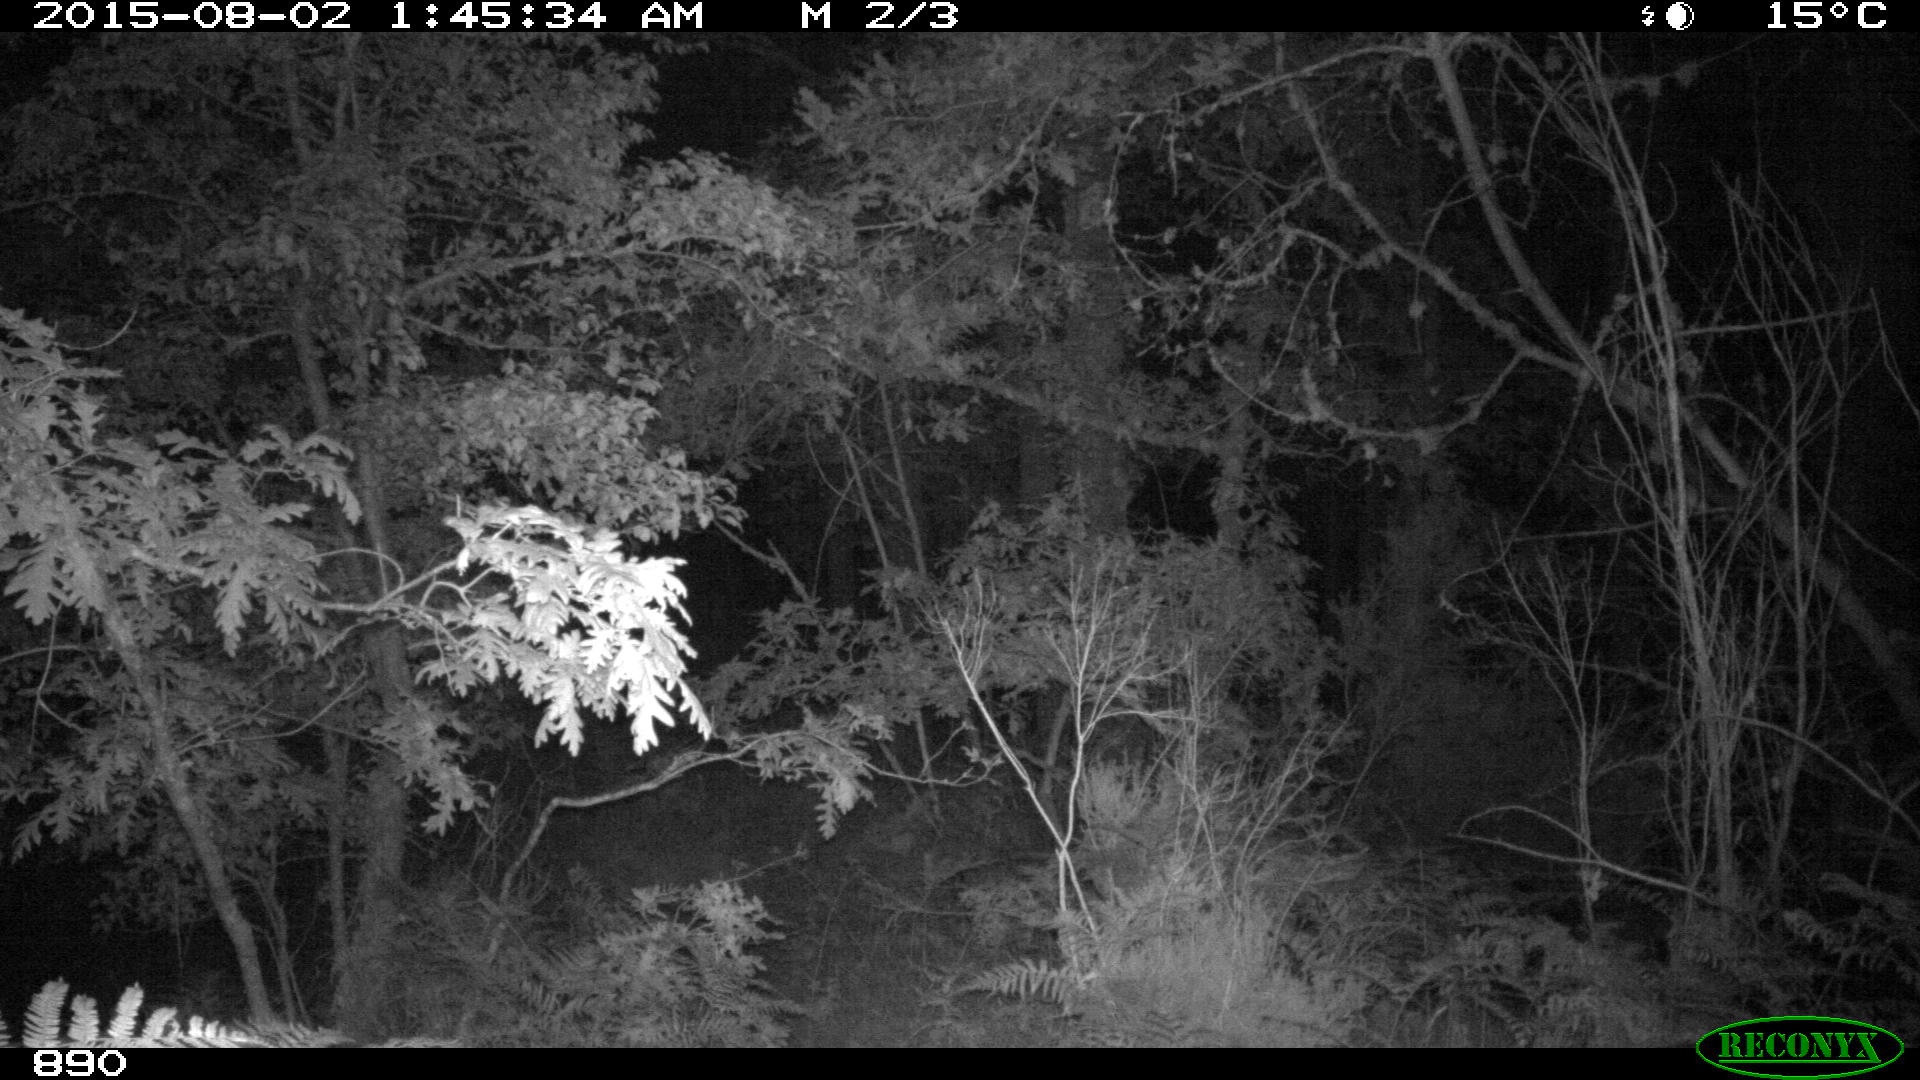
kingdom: Animalia
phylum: Chordata
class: Mammalia
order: Artiodactyla
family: Cervidae
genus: Capreolus
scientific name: Capreolus capreolus
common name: Western roe deer
